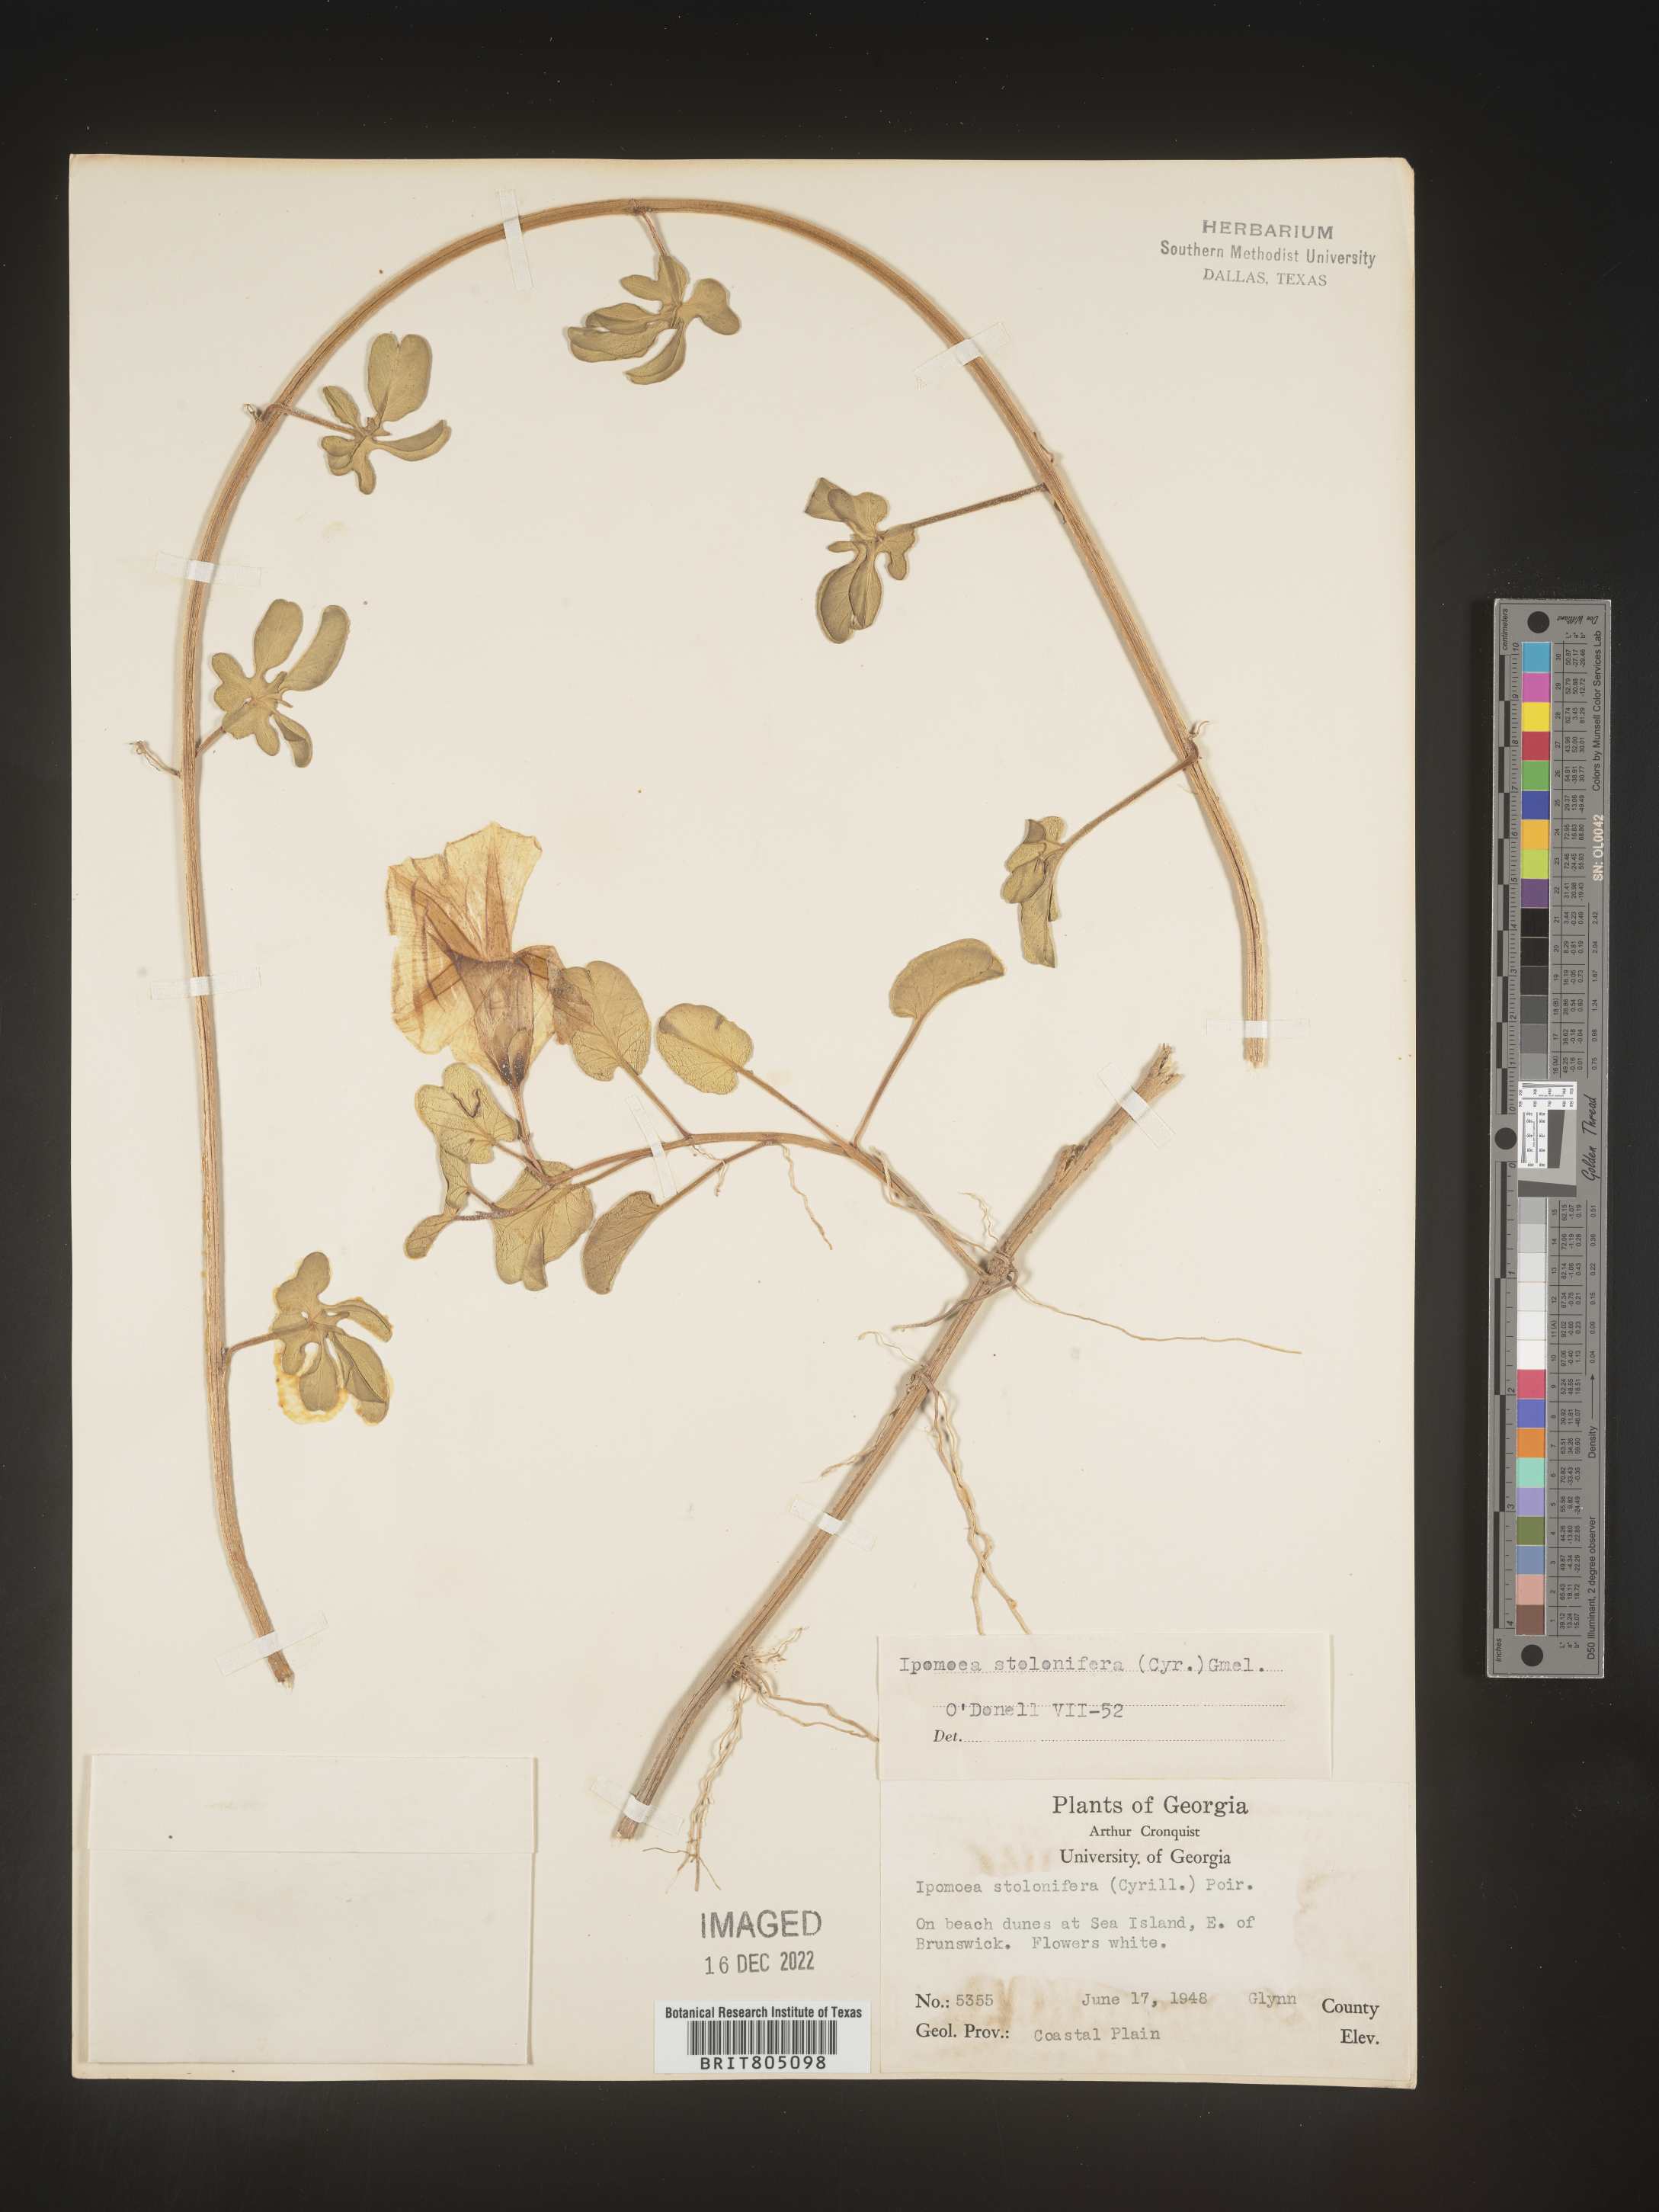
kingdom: Plantae
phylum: Tracheophyta
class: Magnoliopsida
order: Solanales
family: Convolvulaceae
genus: Ipomoea
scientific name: Ipomoea imperati
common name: Fiddle-leaf morning-glory
